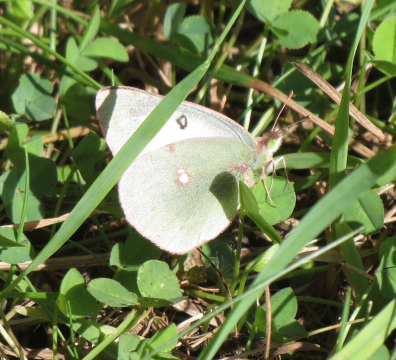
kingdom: Animalia
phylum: Arthropoda
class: Insecta
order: Lepidoptera
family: Pieridae
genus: Colias
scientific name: Colias philodice
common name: Clouded Sulphur
